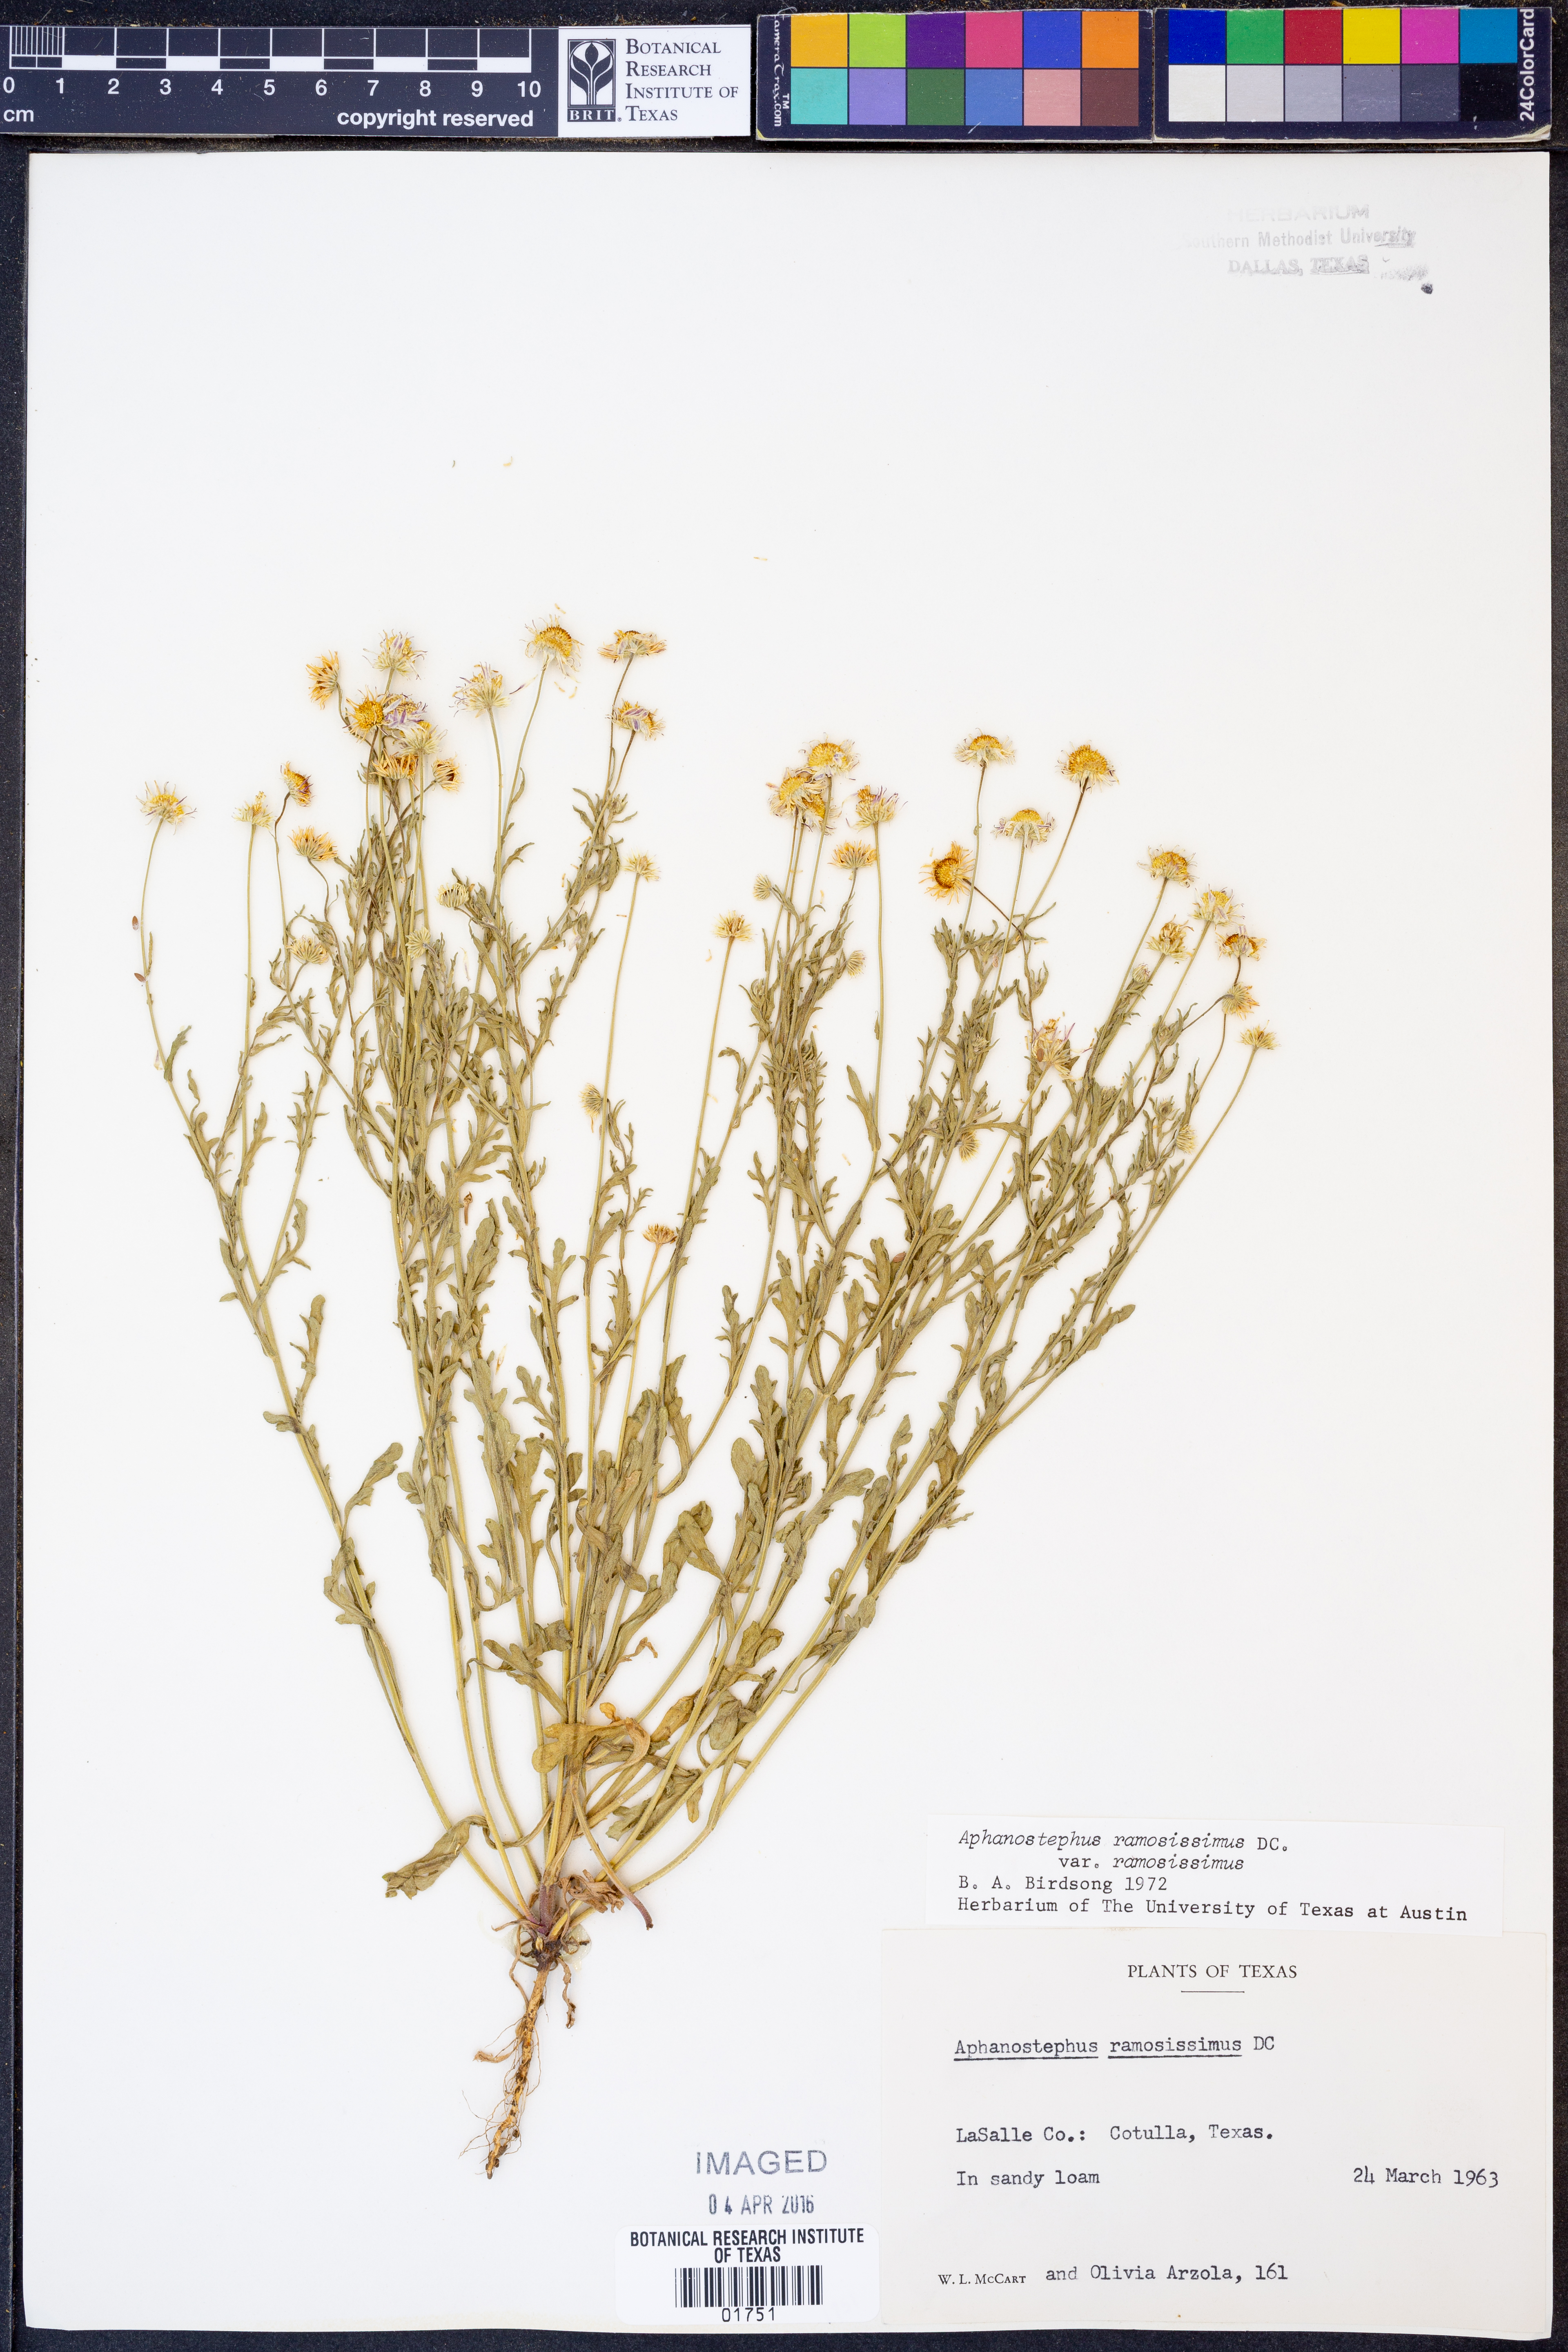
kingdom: Plantae
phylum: Tracheophyta
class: Magnoliopsida
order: Asterales
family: Asteraceae
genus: Aphanostephus
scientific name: Aphanostephus ramosissimus
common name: Plains lazy daisy
